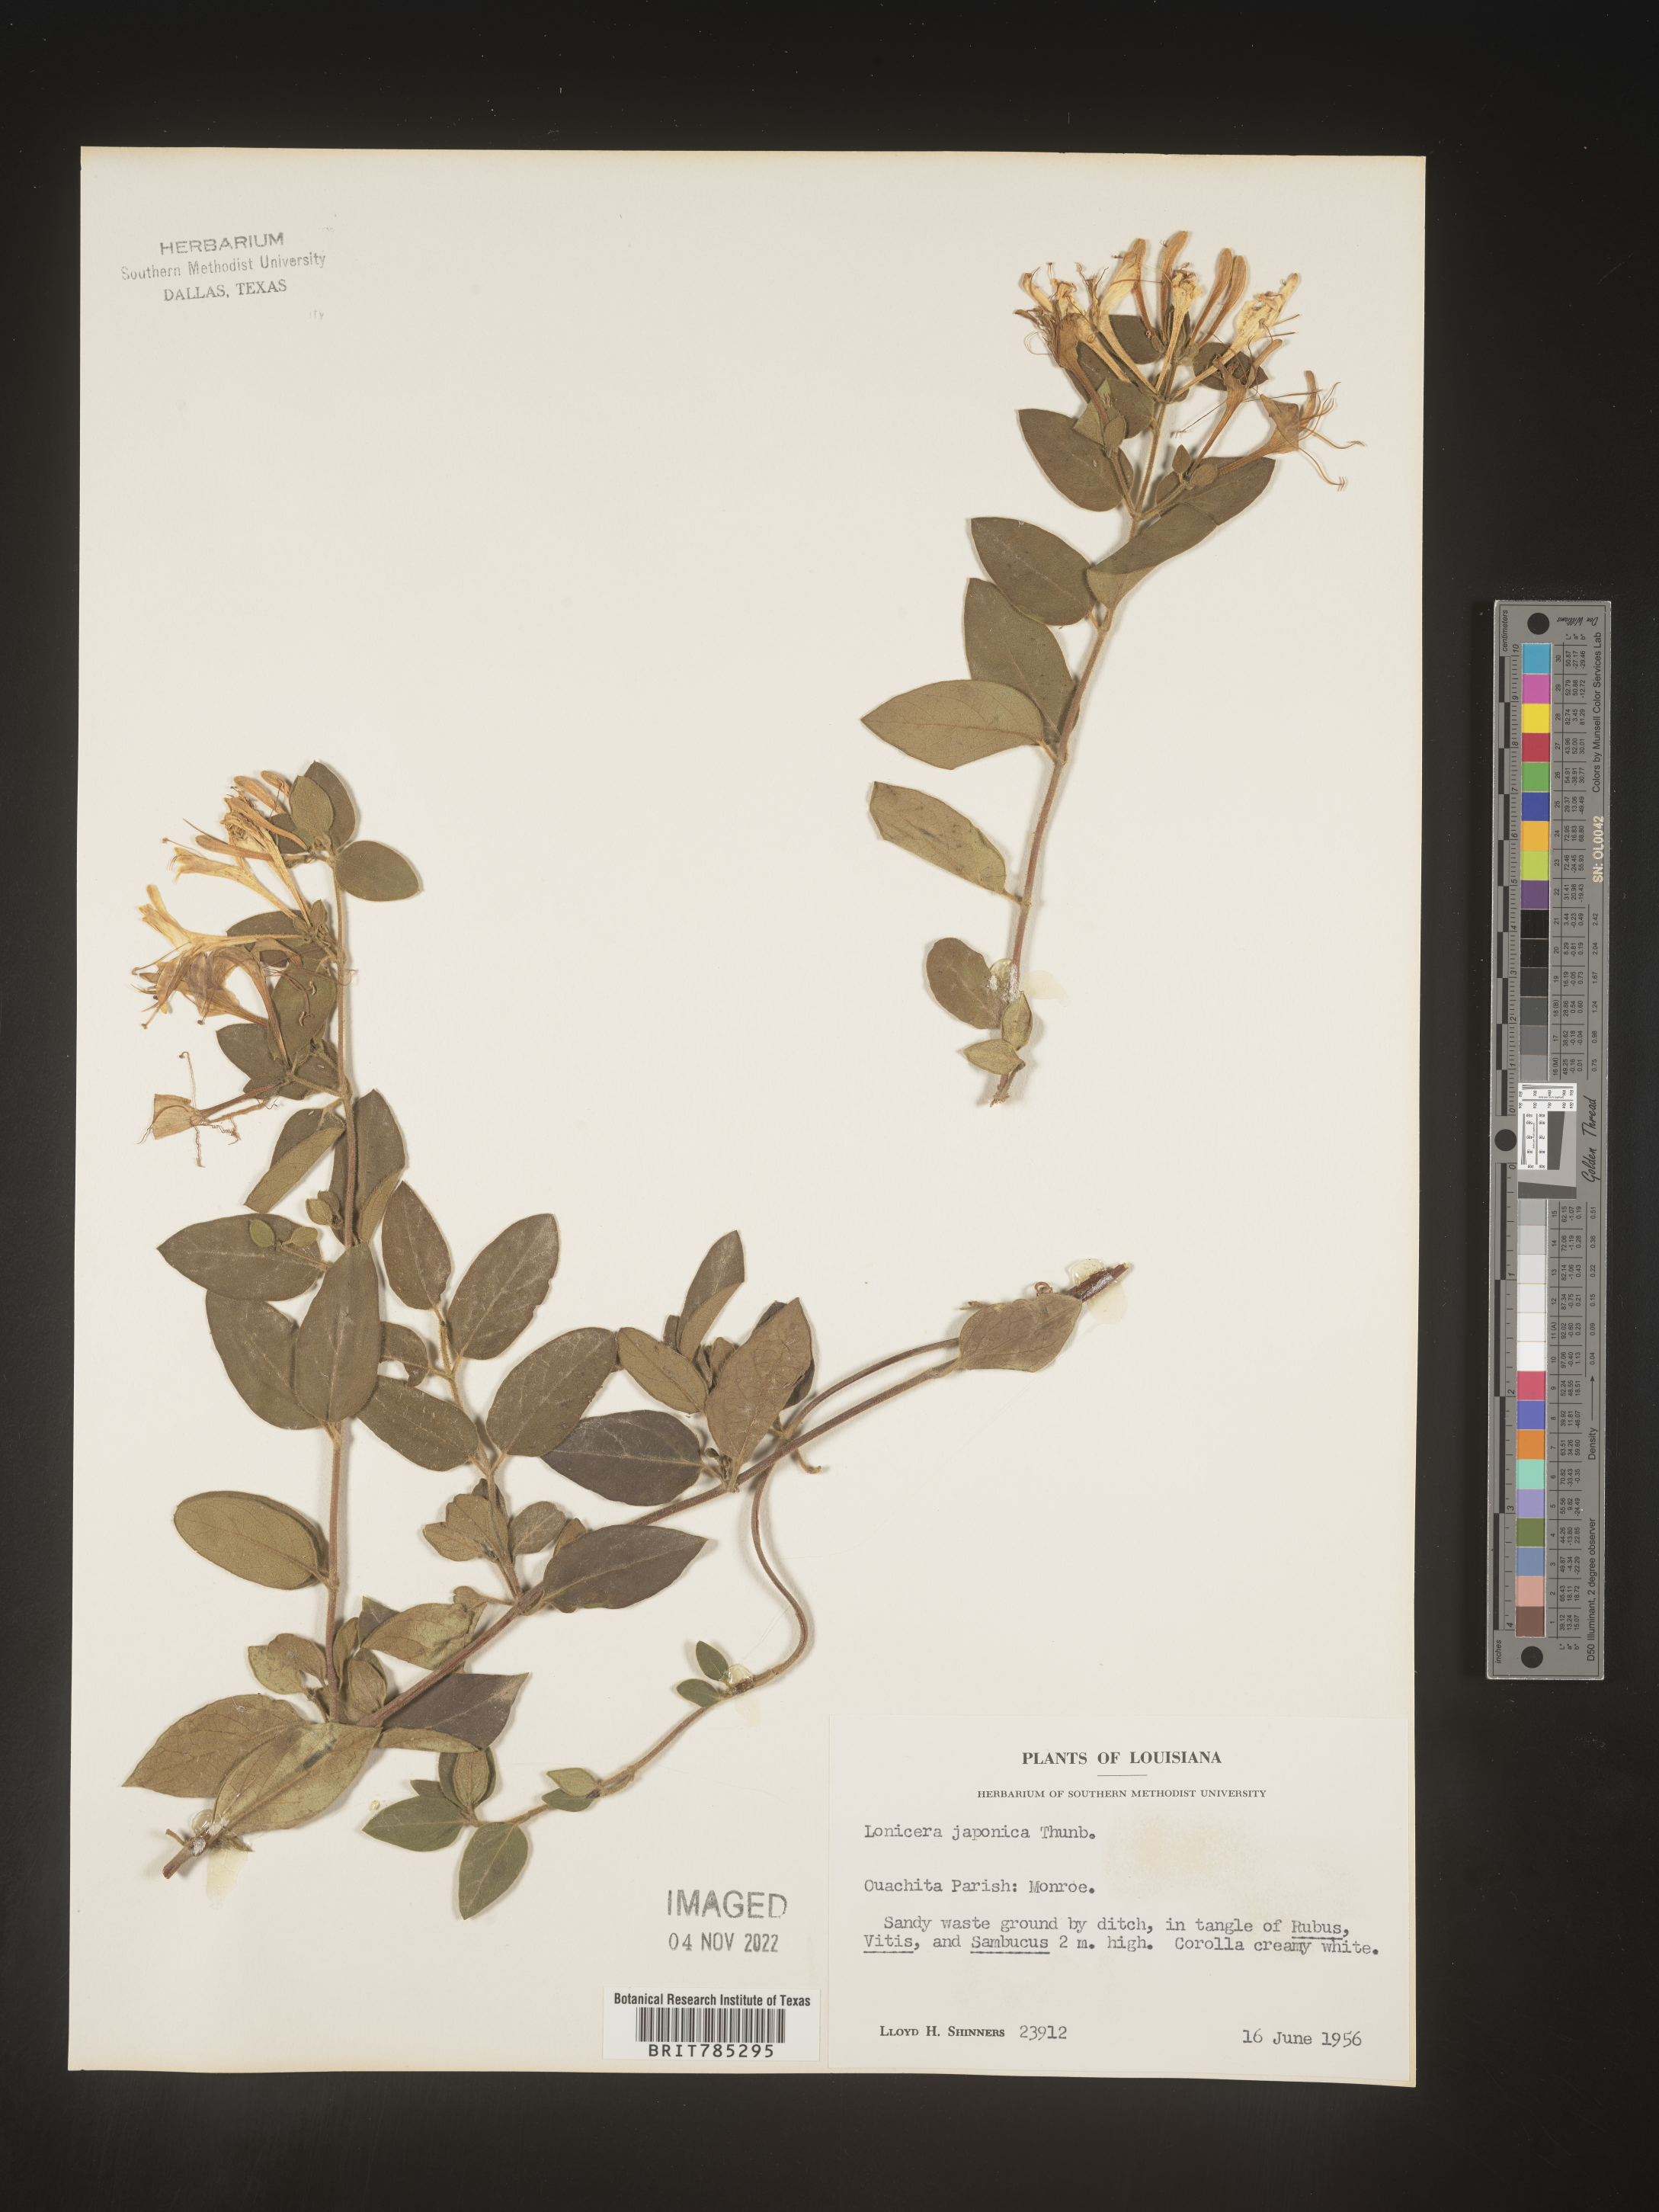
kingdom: Plantae
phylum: Tracheophyta
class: Magnoliopsida
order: Dipsacales
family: Caprifoliaceae
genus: Lonicera
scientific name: Lonicera japonica
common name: Japanese honeysuckle
